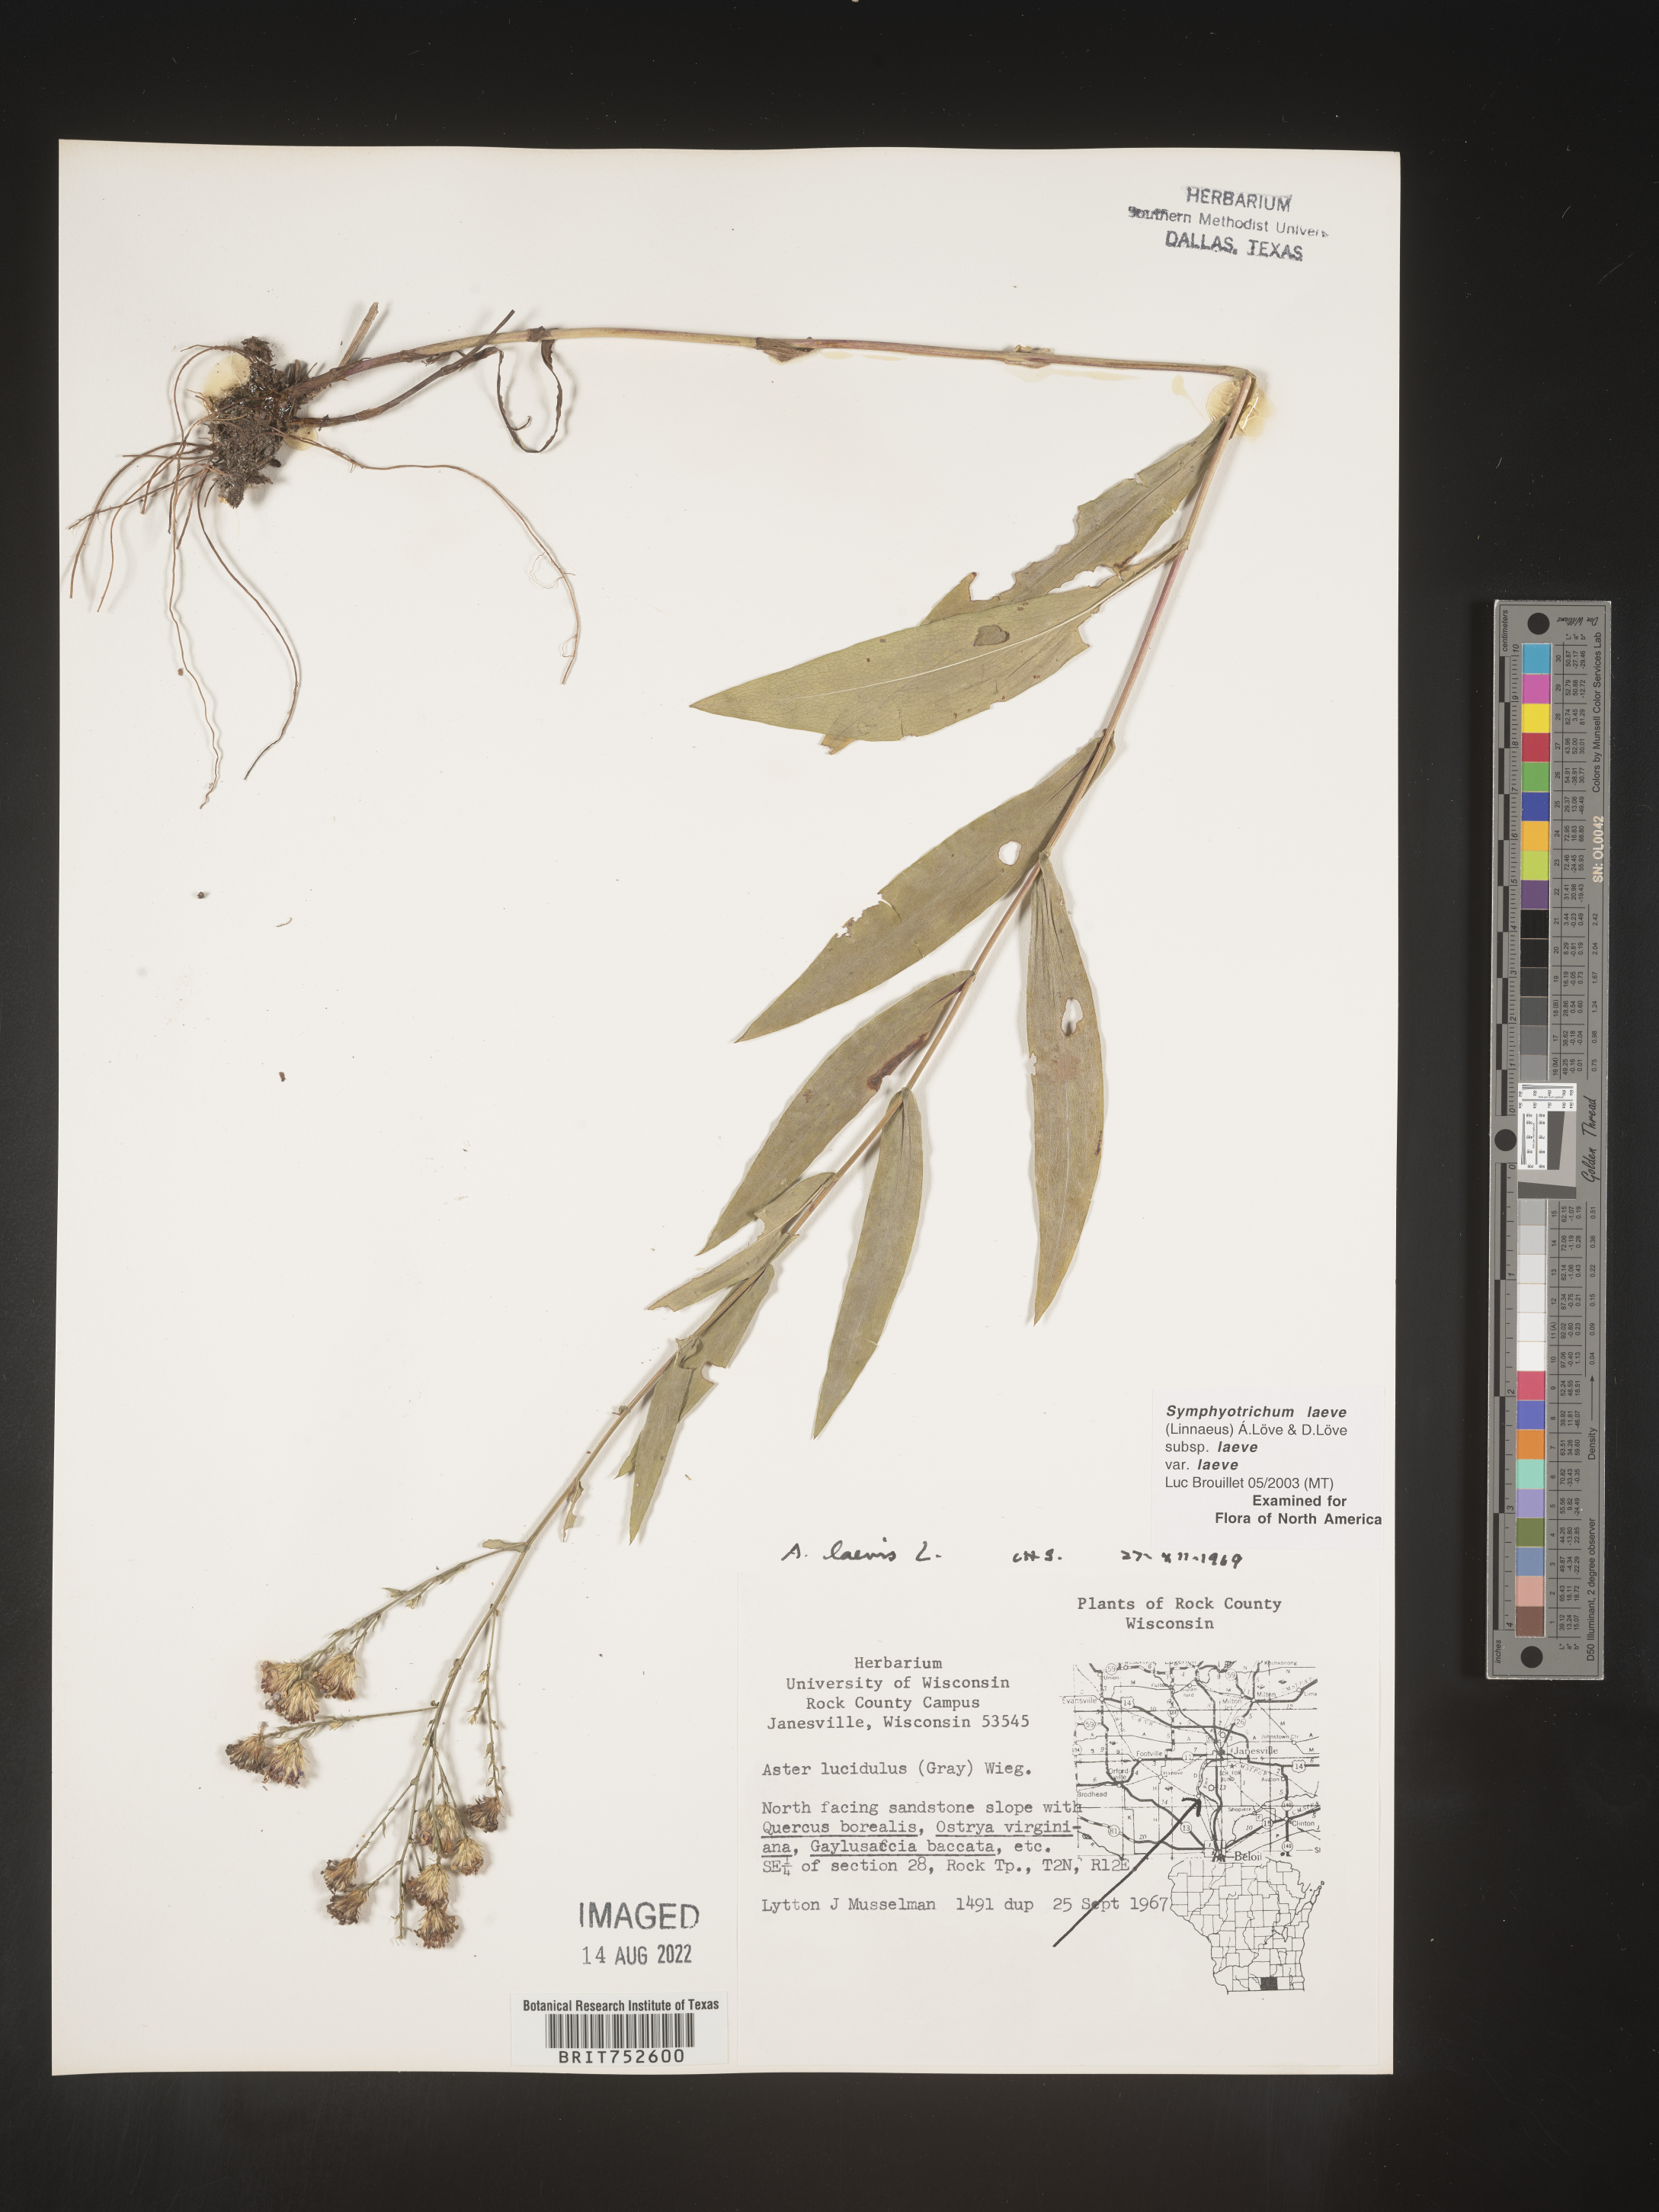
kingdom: Plantae
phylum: Tracheophyta
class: Magnoliopsida
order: Asterales
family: Asteraceae
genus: Symphyotrichum
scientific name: Symphyotrichum laeve
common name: Glaucous aster
